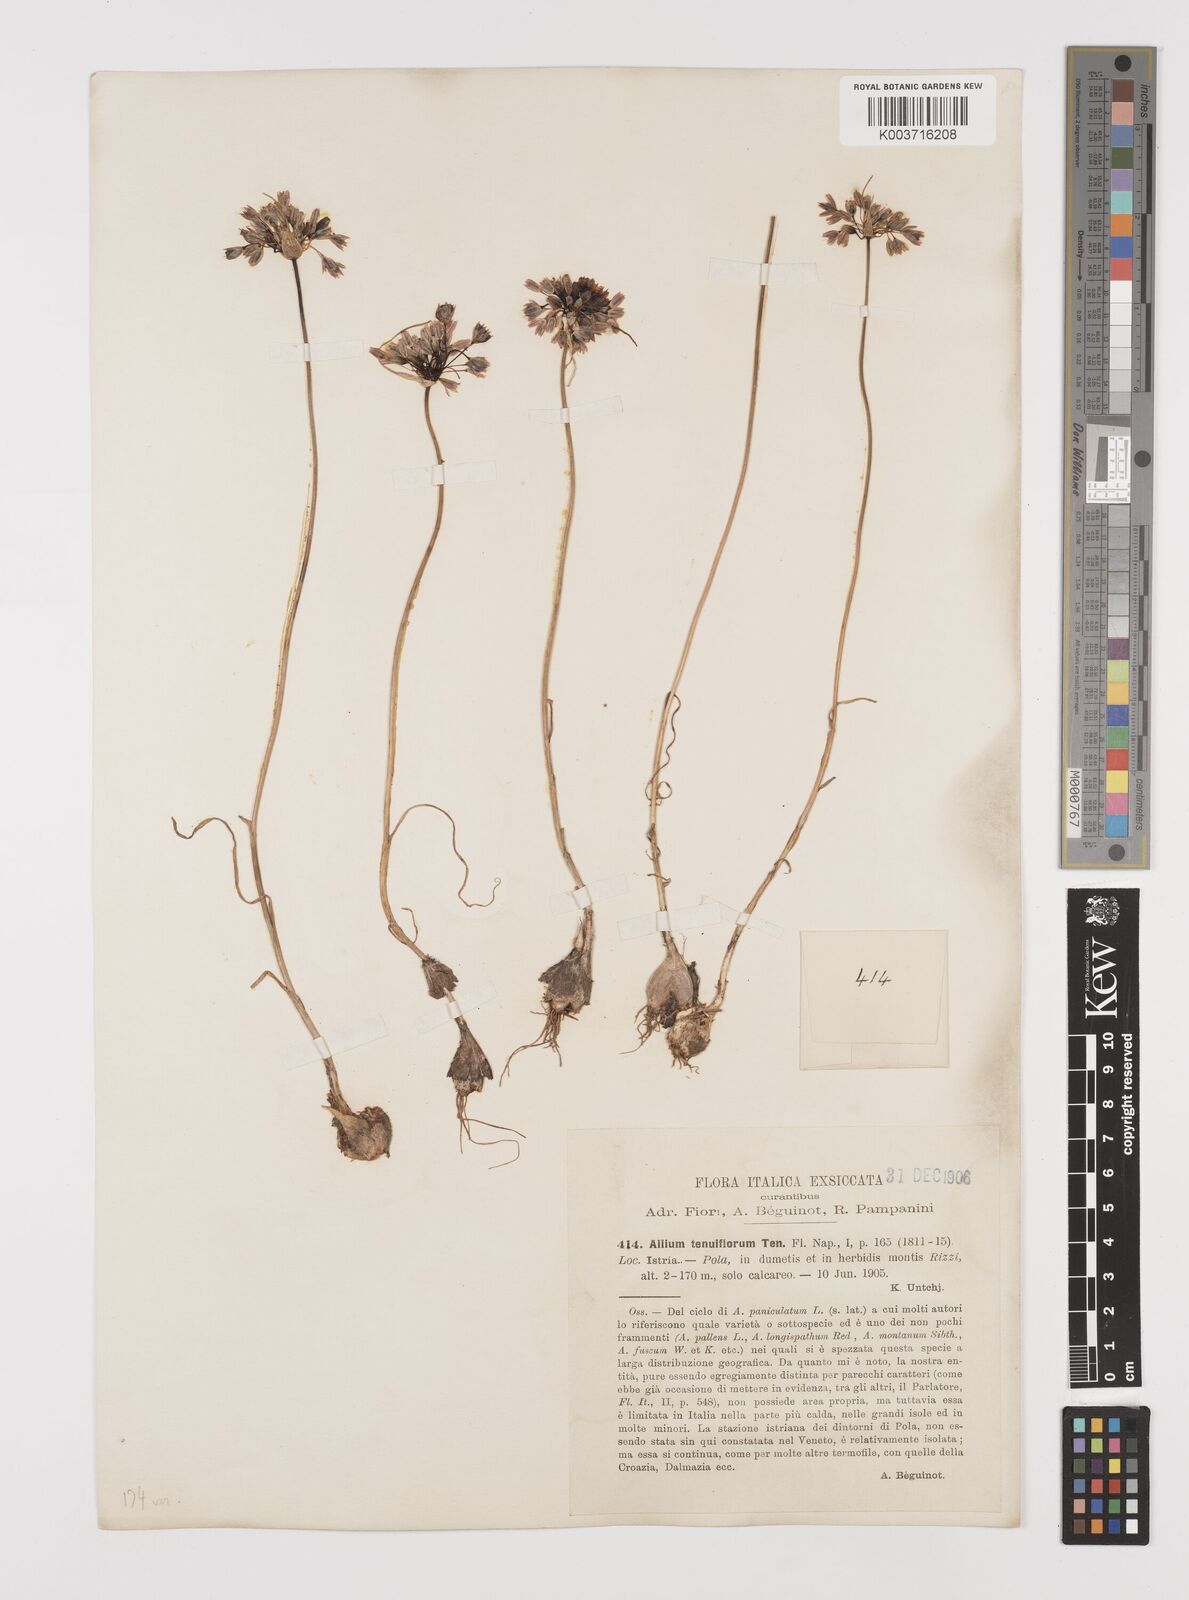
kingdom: Plantae
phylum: Tracheophyta
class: Liliopsida
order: Asparagales
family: Amaryllidaceae
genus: Allium
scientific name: Allium tenuiflorum
